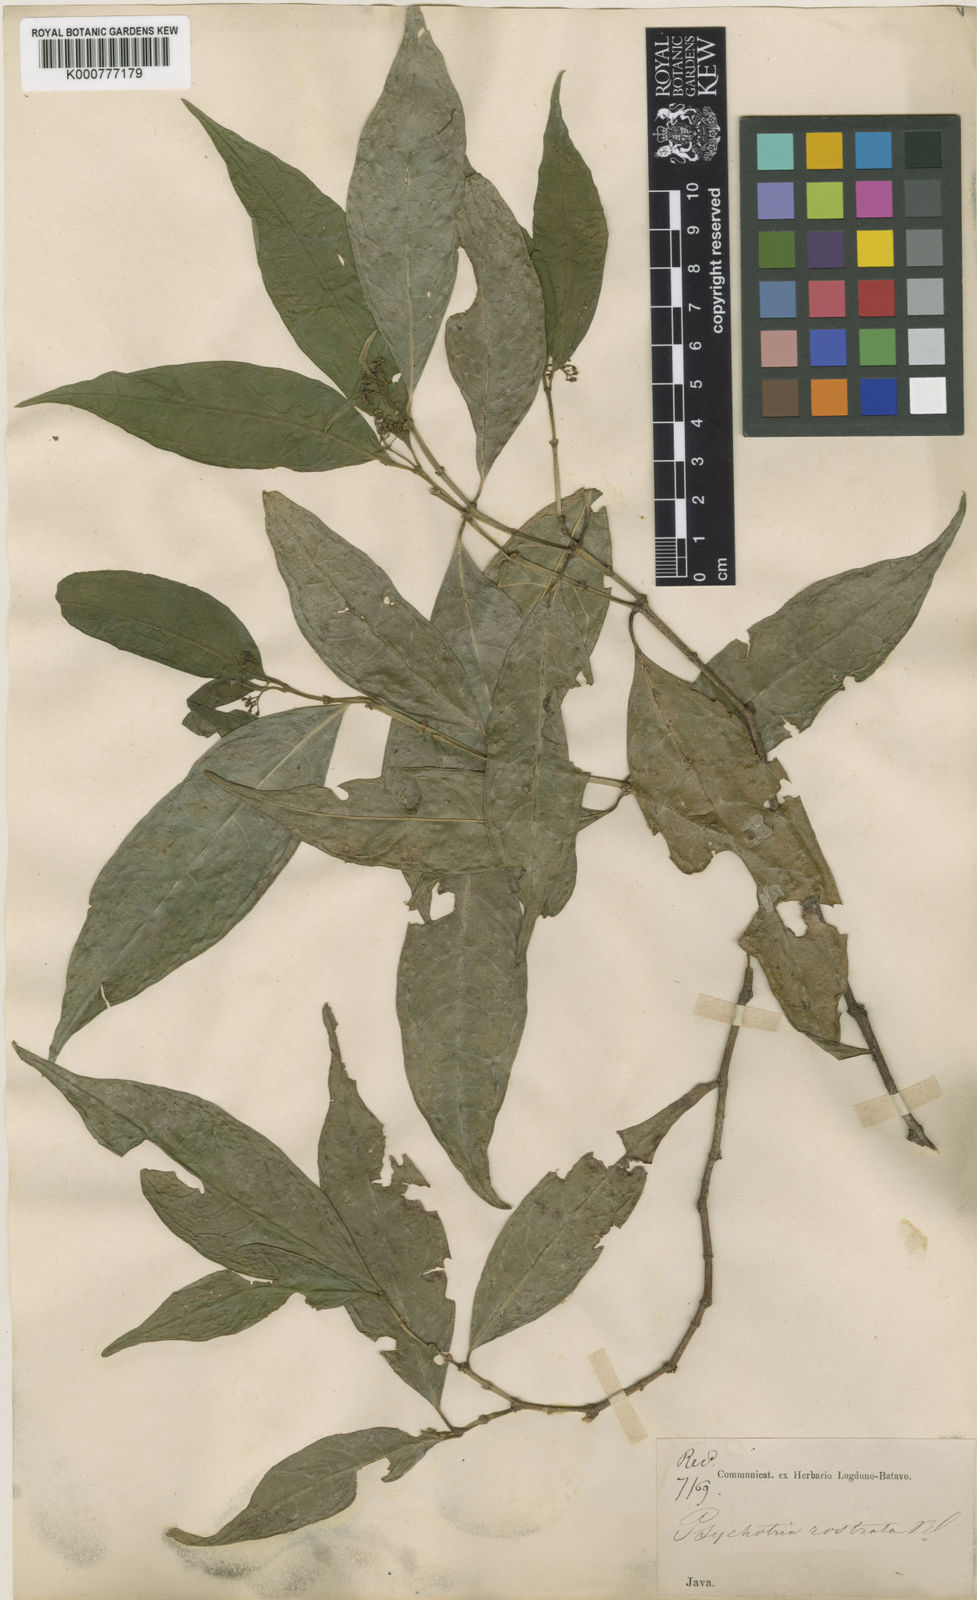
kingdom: Plantae
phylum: Tracheophyta
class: Magnoliopsida
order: Gentianales
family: Rubiaceae
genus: Eumachia
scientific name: Eumachia rostrata
